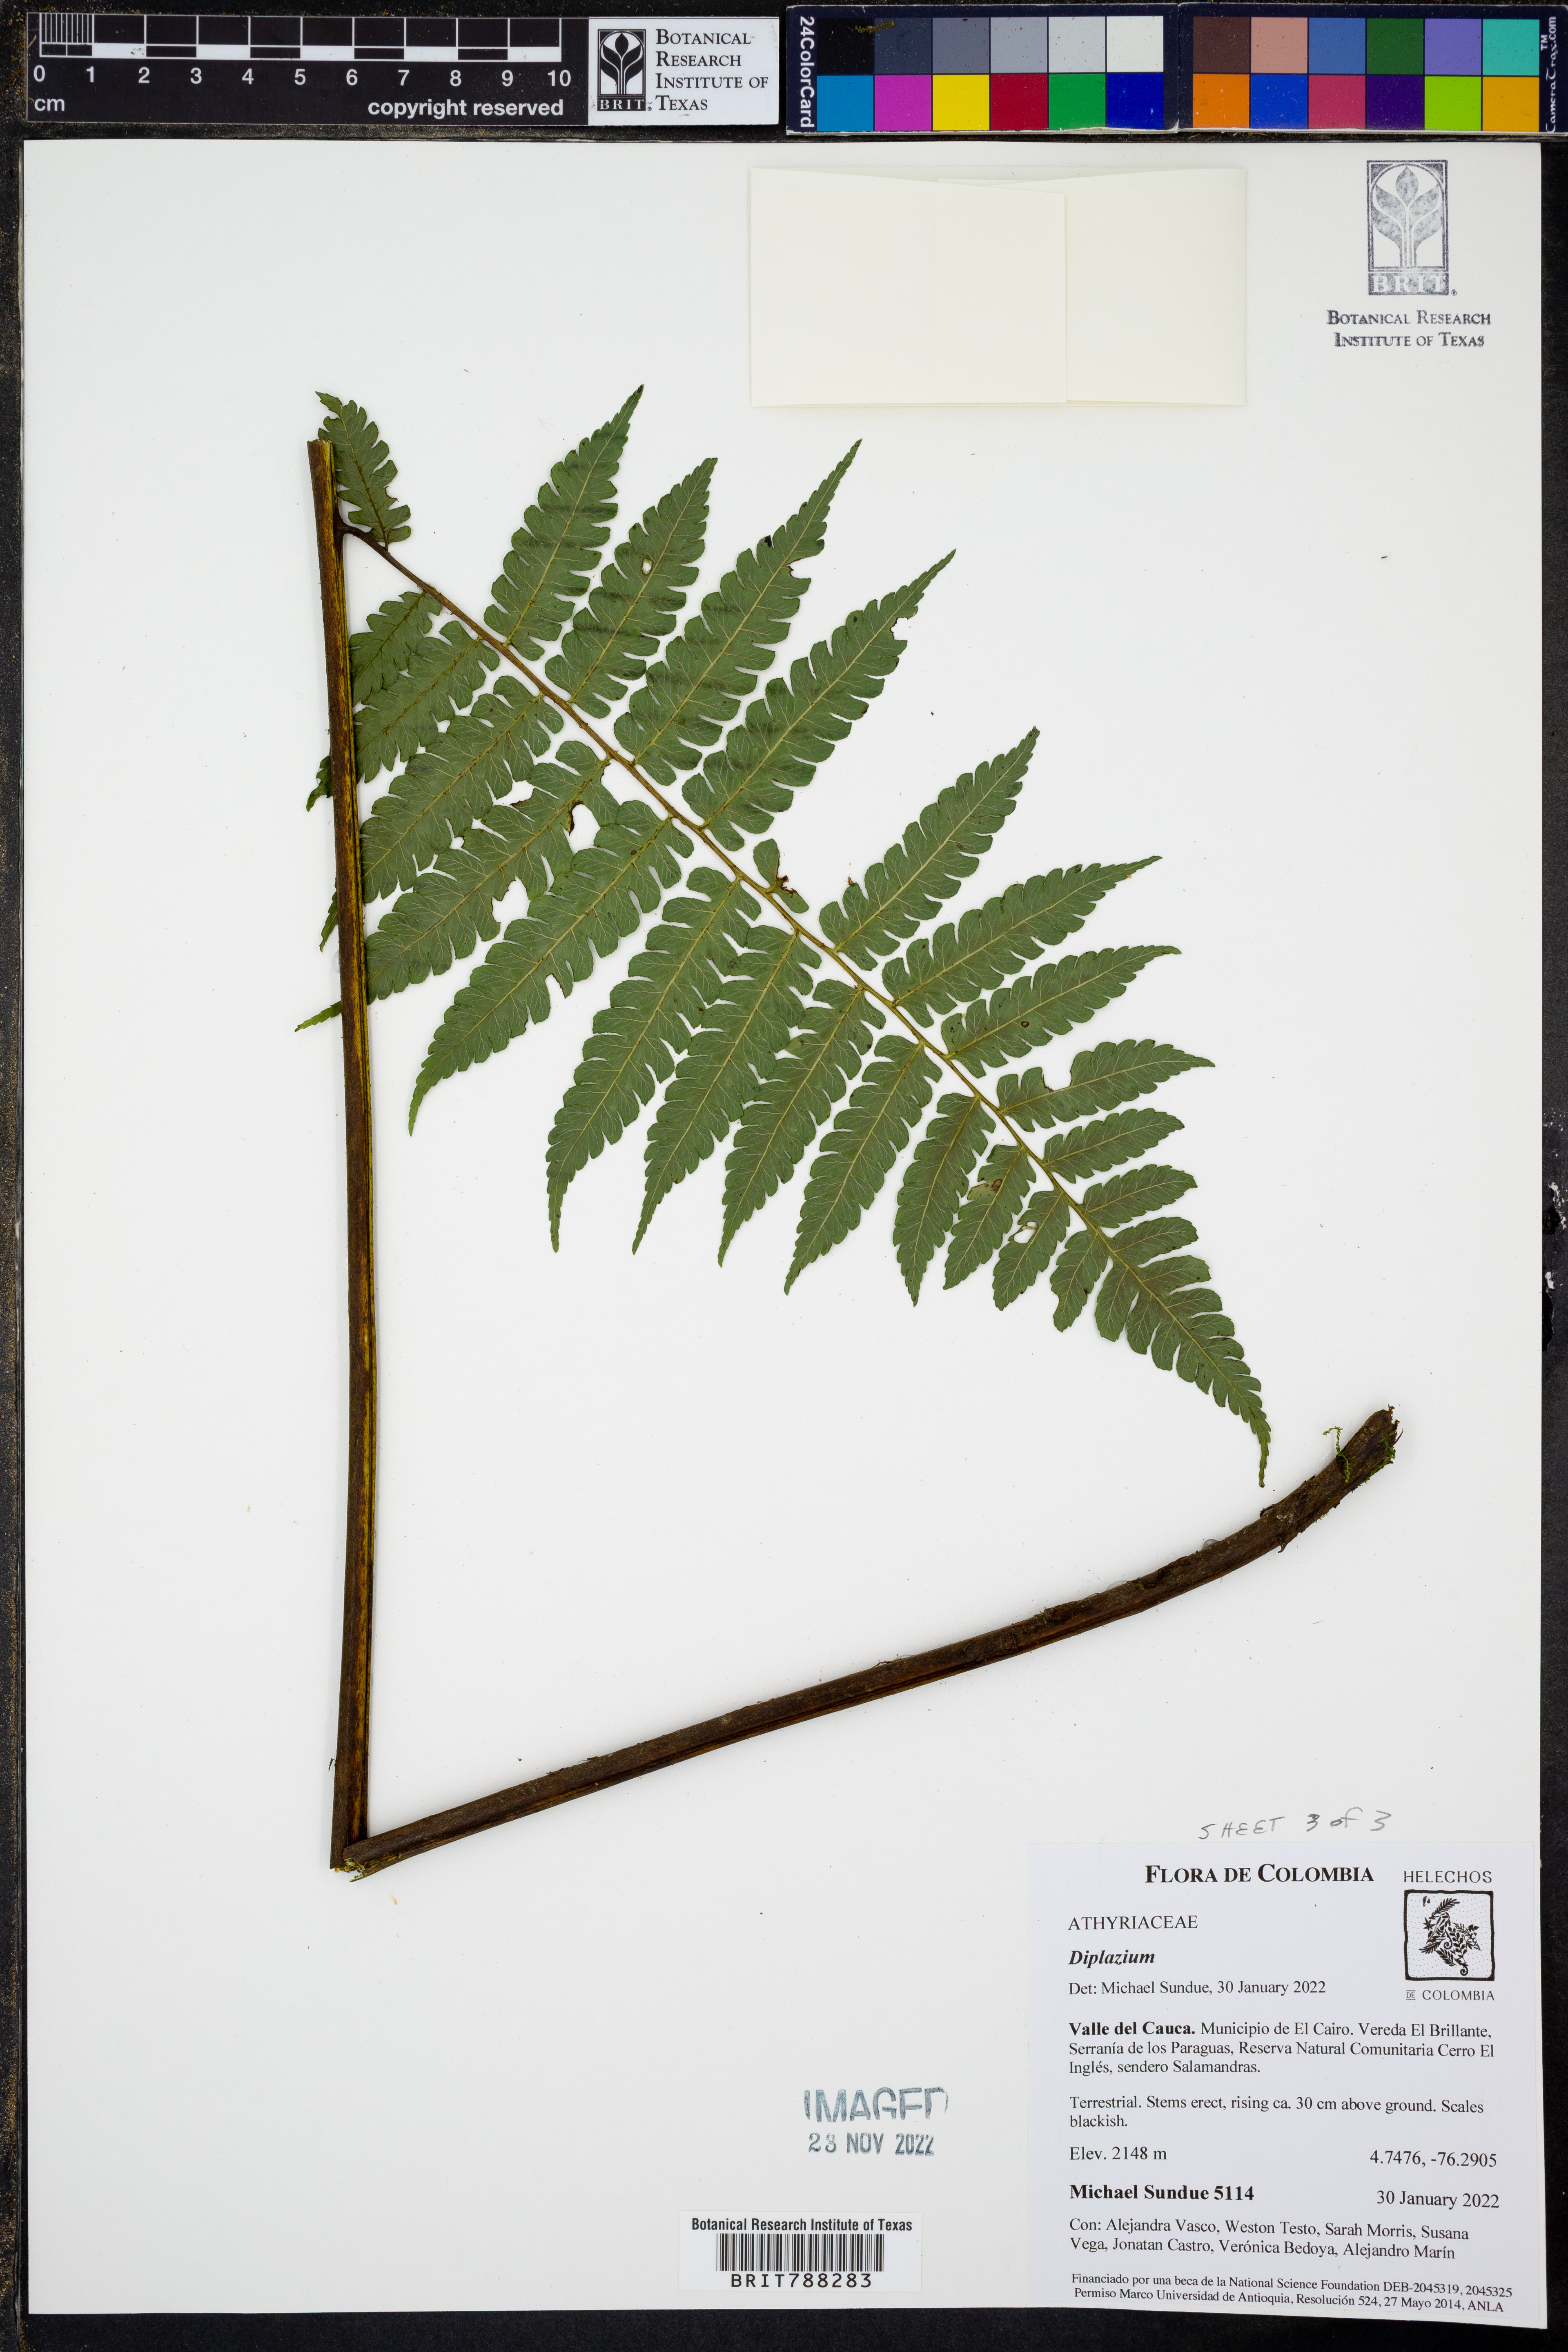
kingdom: Plantae
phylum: Tracheophyta
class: Polypodiopsida
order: Polypodiales
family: Athyriaceae
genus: Diplazium
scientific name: Diplazium vastum
